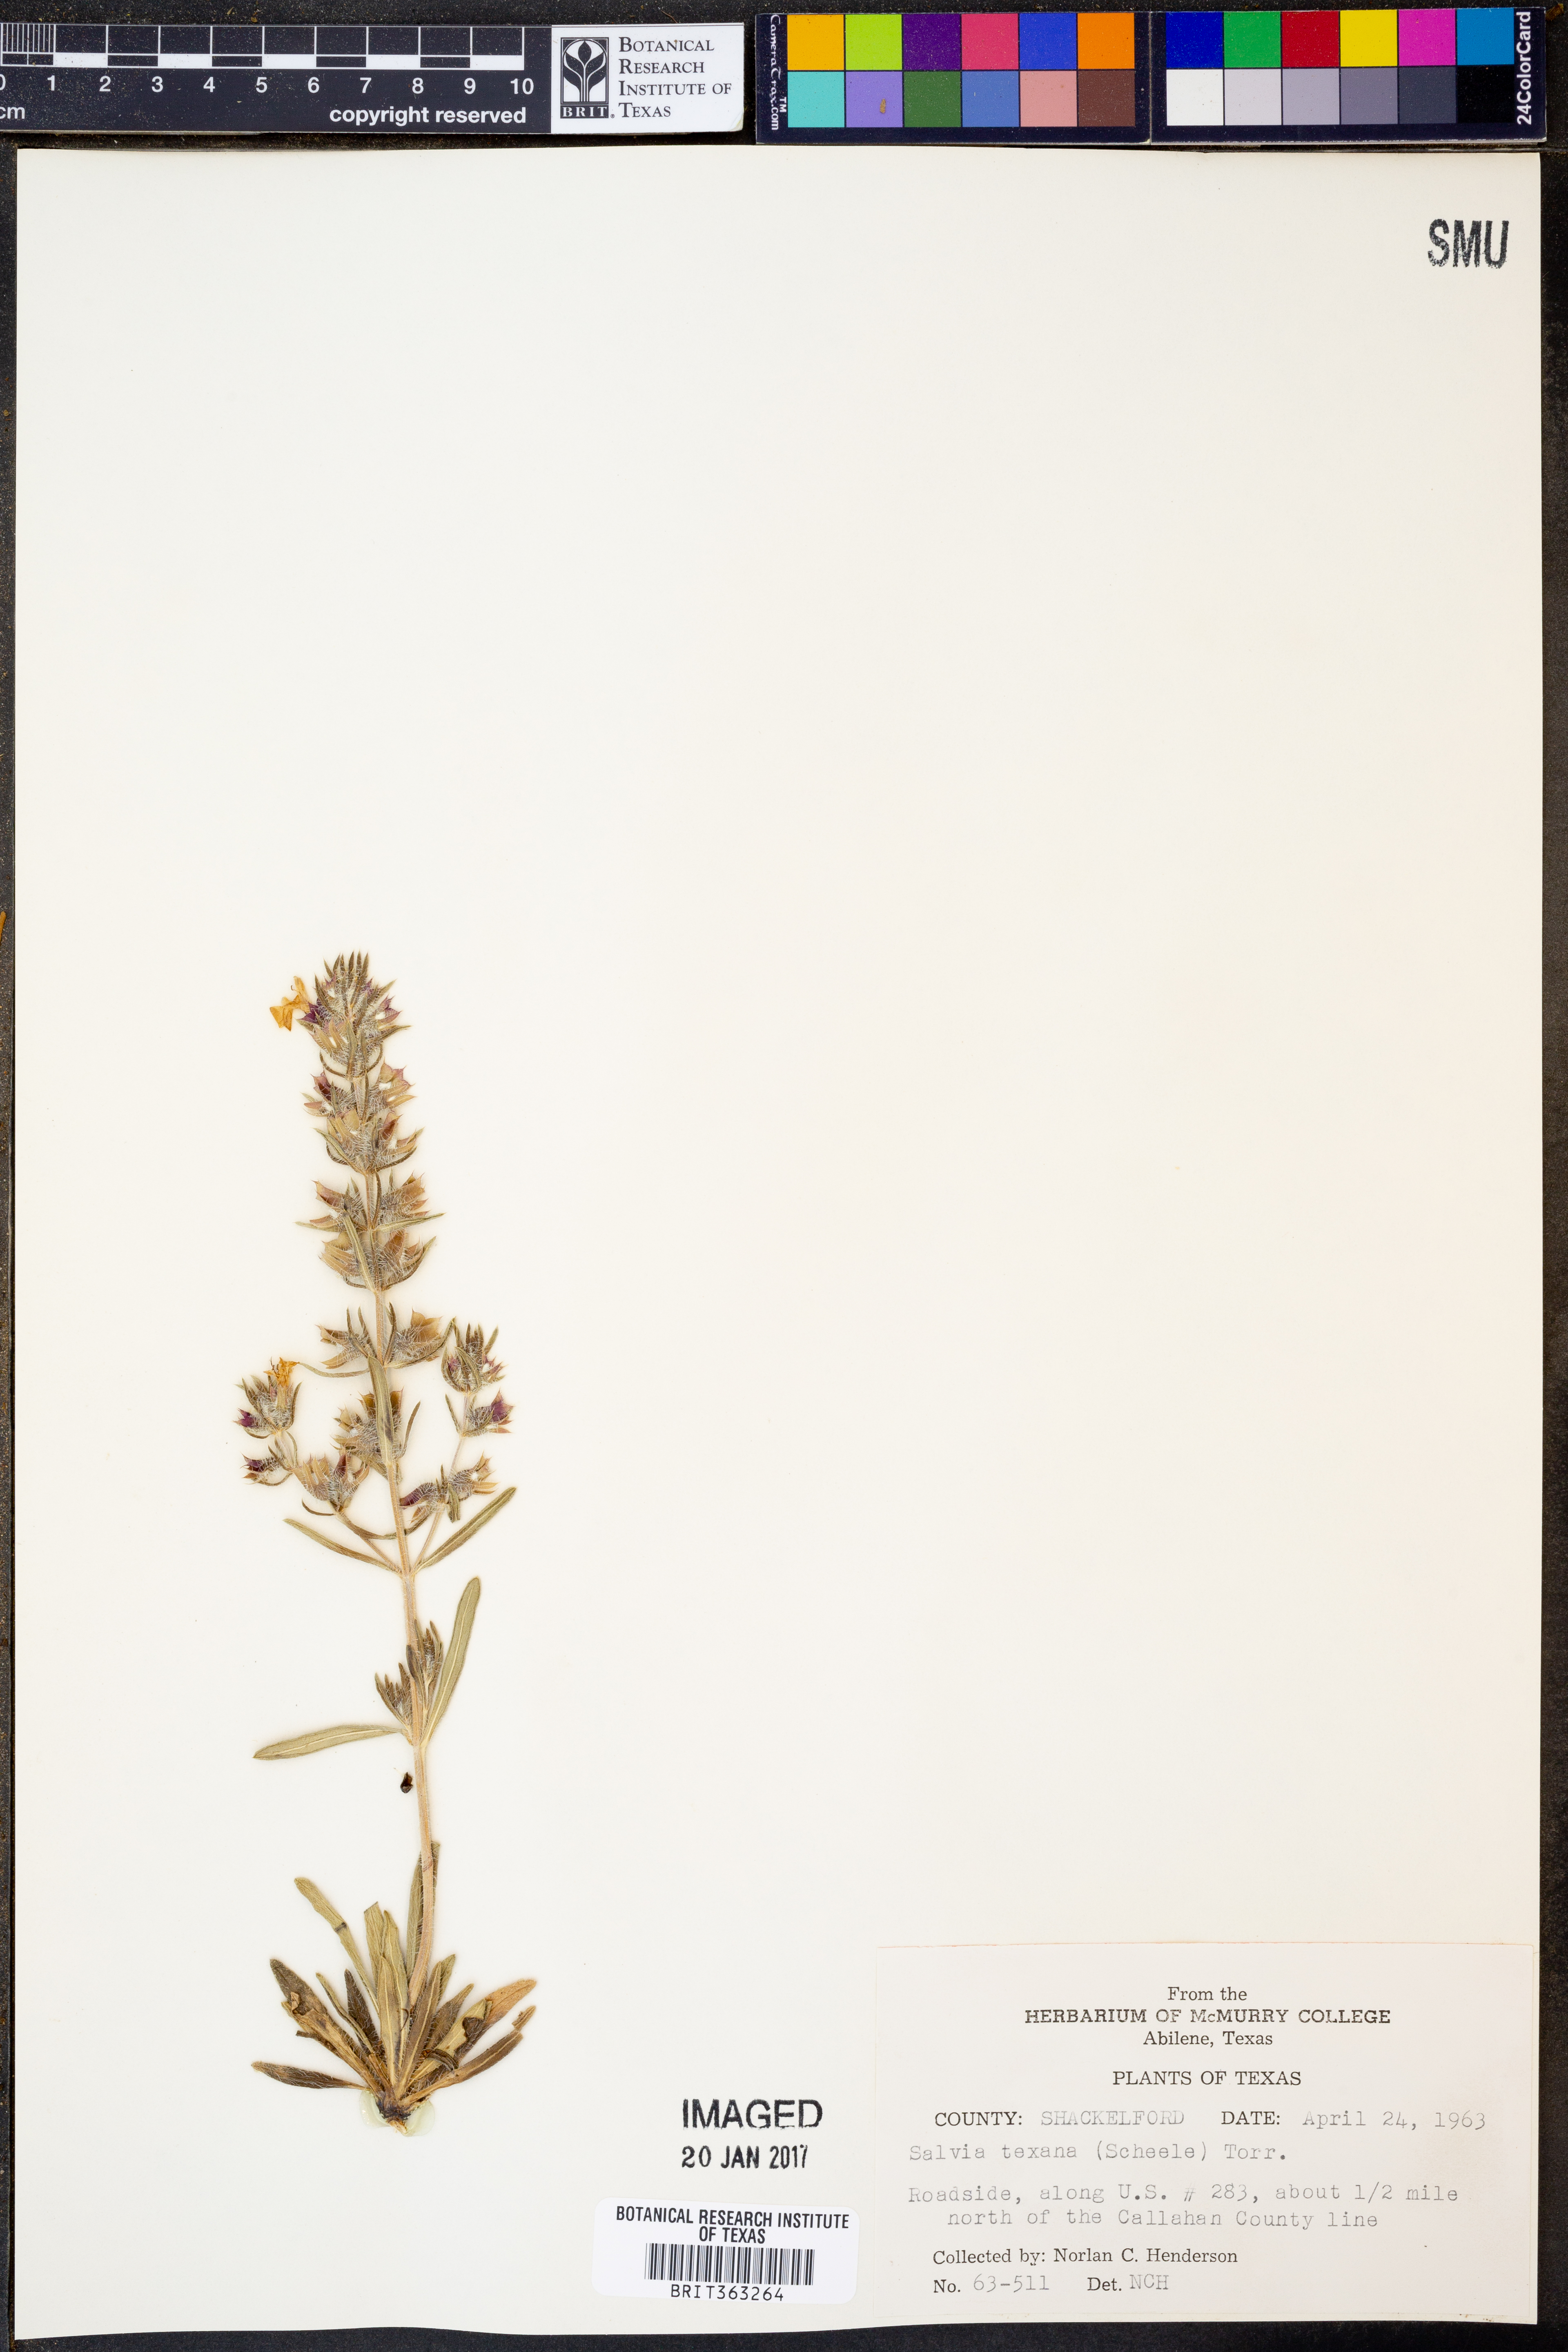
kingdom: Plantae
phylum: Tracheophyta
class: Magnoliopsida
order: Lamiales
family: Lamiaceae
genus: Salvia
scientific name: Salvia texana
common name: Texas sage
